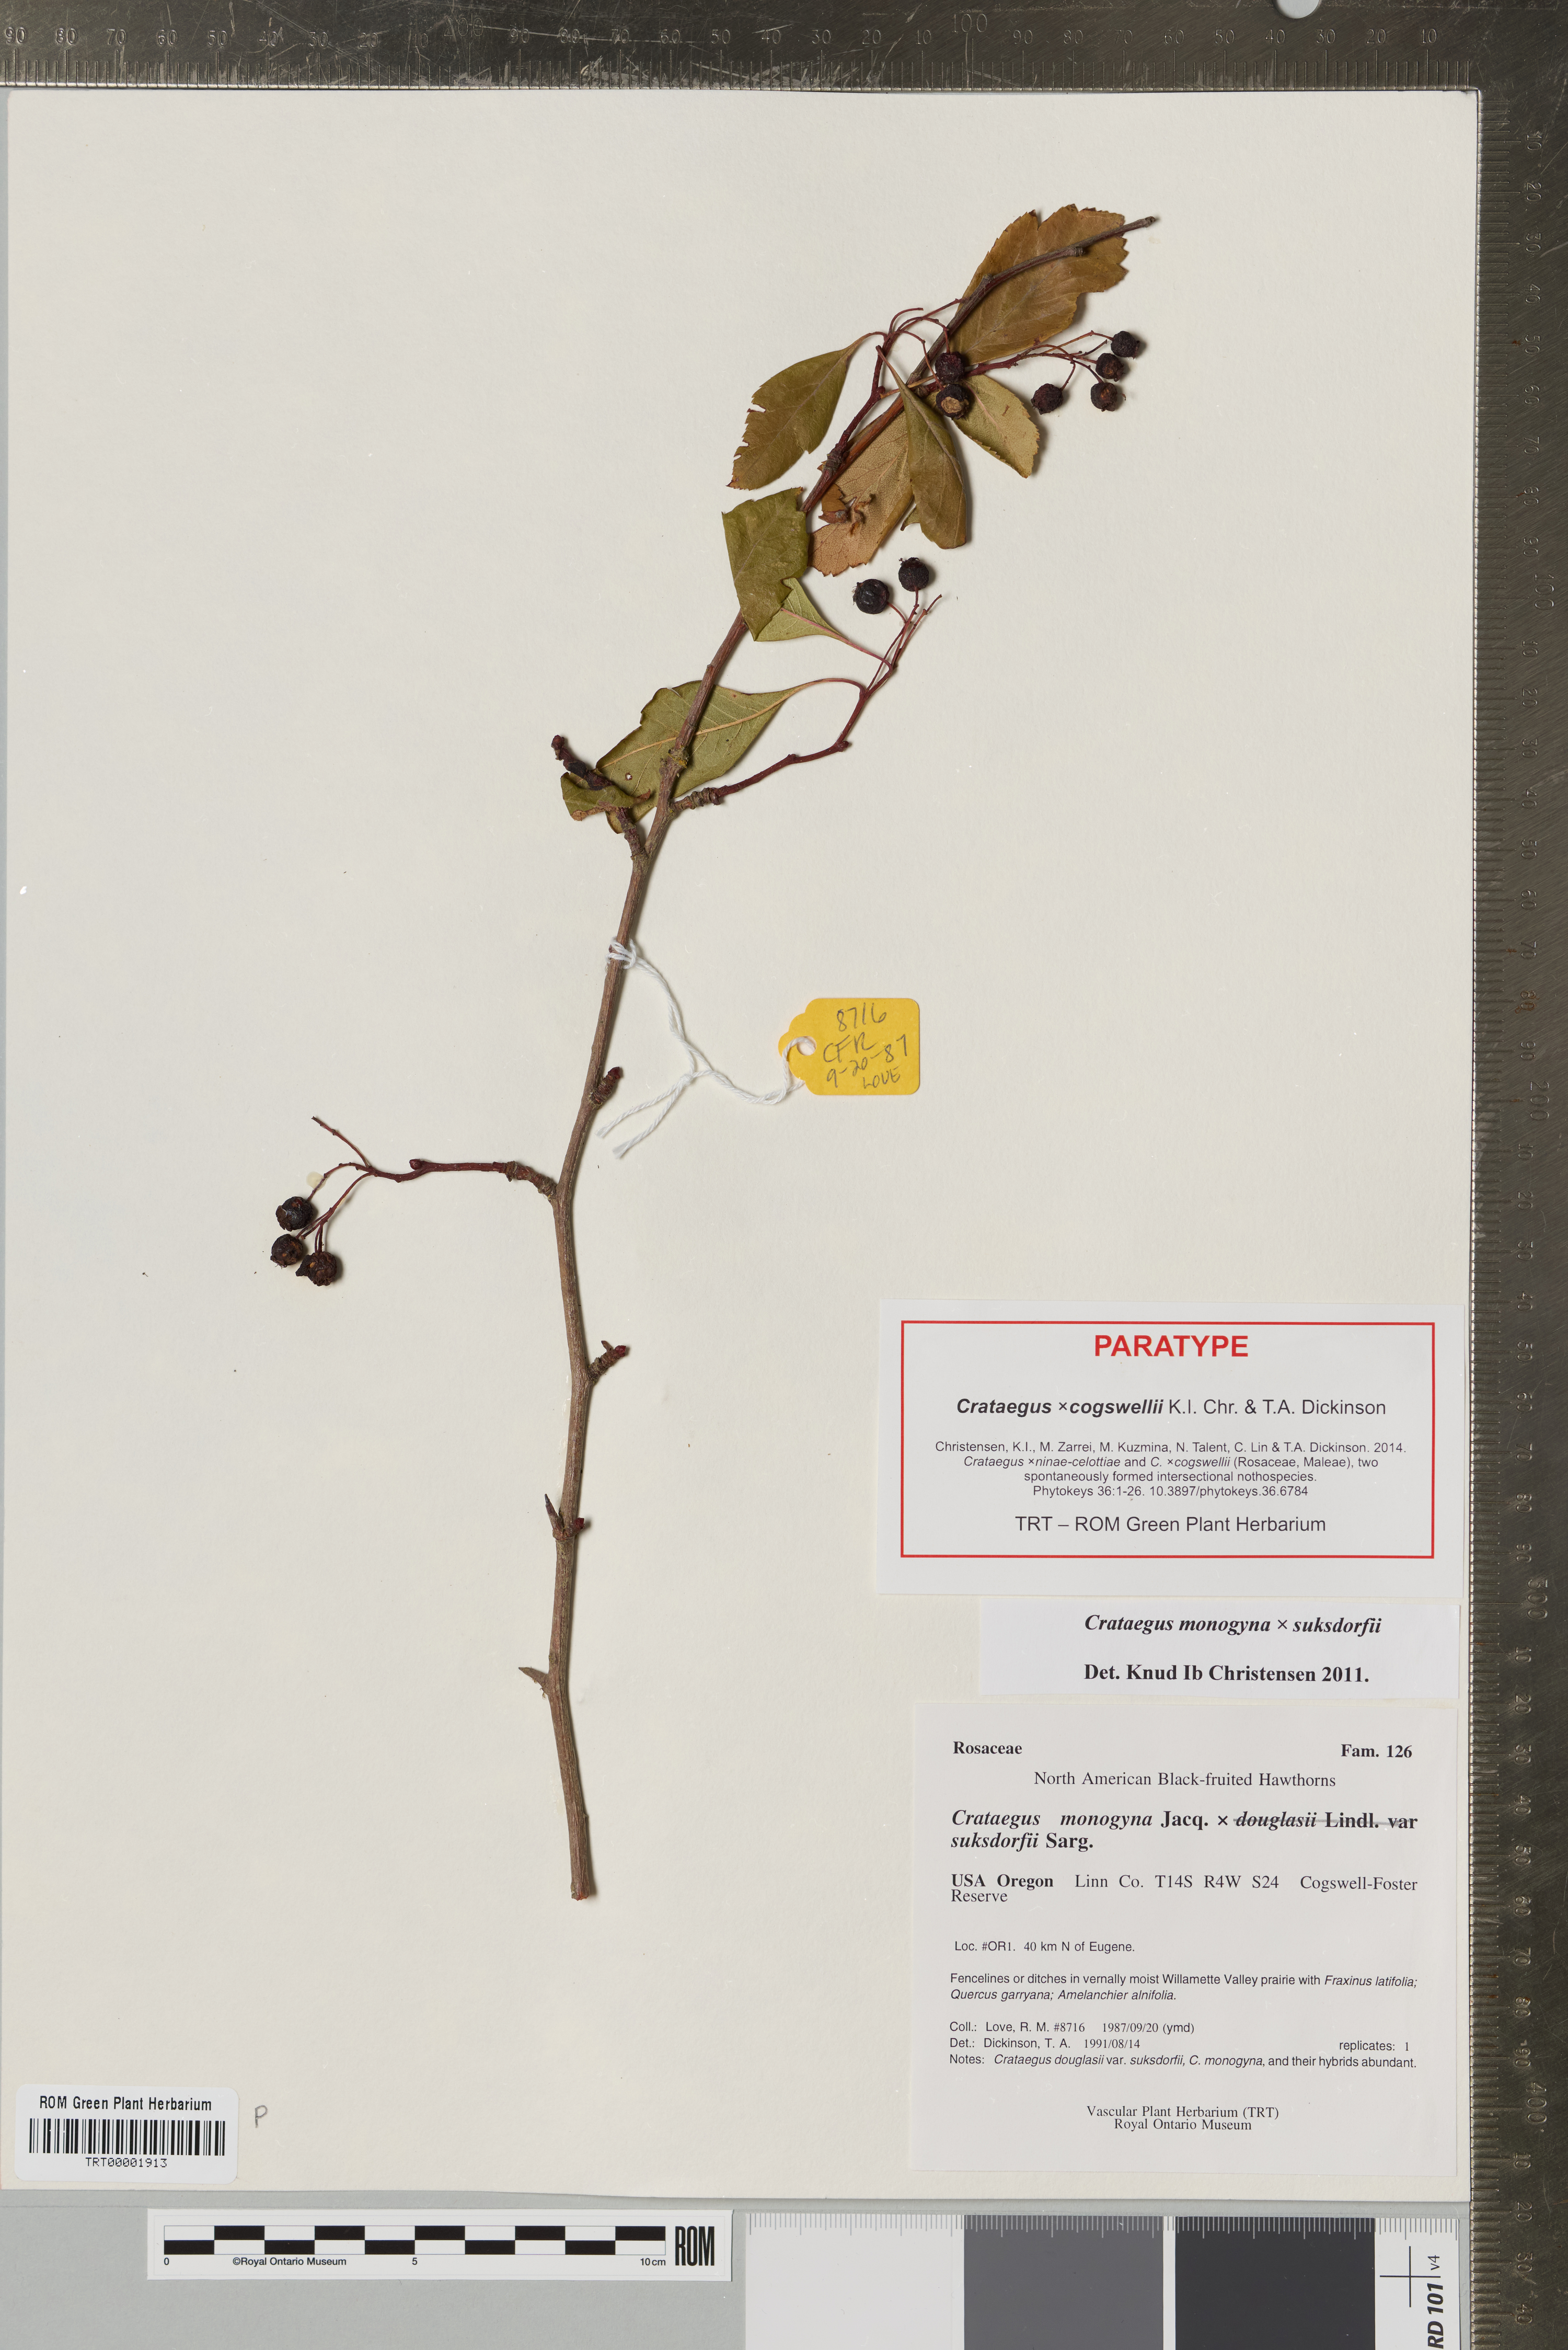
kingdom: Plantae
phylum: Tracheophyta
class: Magnoliopsida
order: Rosales
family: Rosaceae
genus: Crataegus
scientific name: Crataegus
